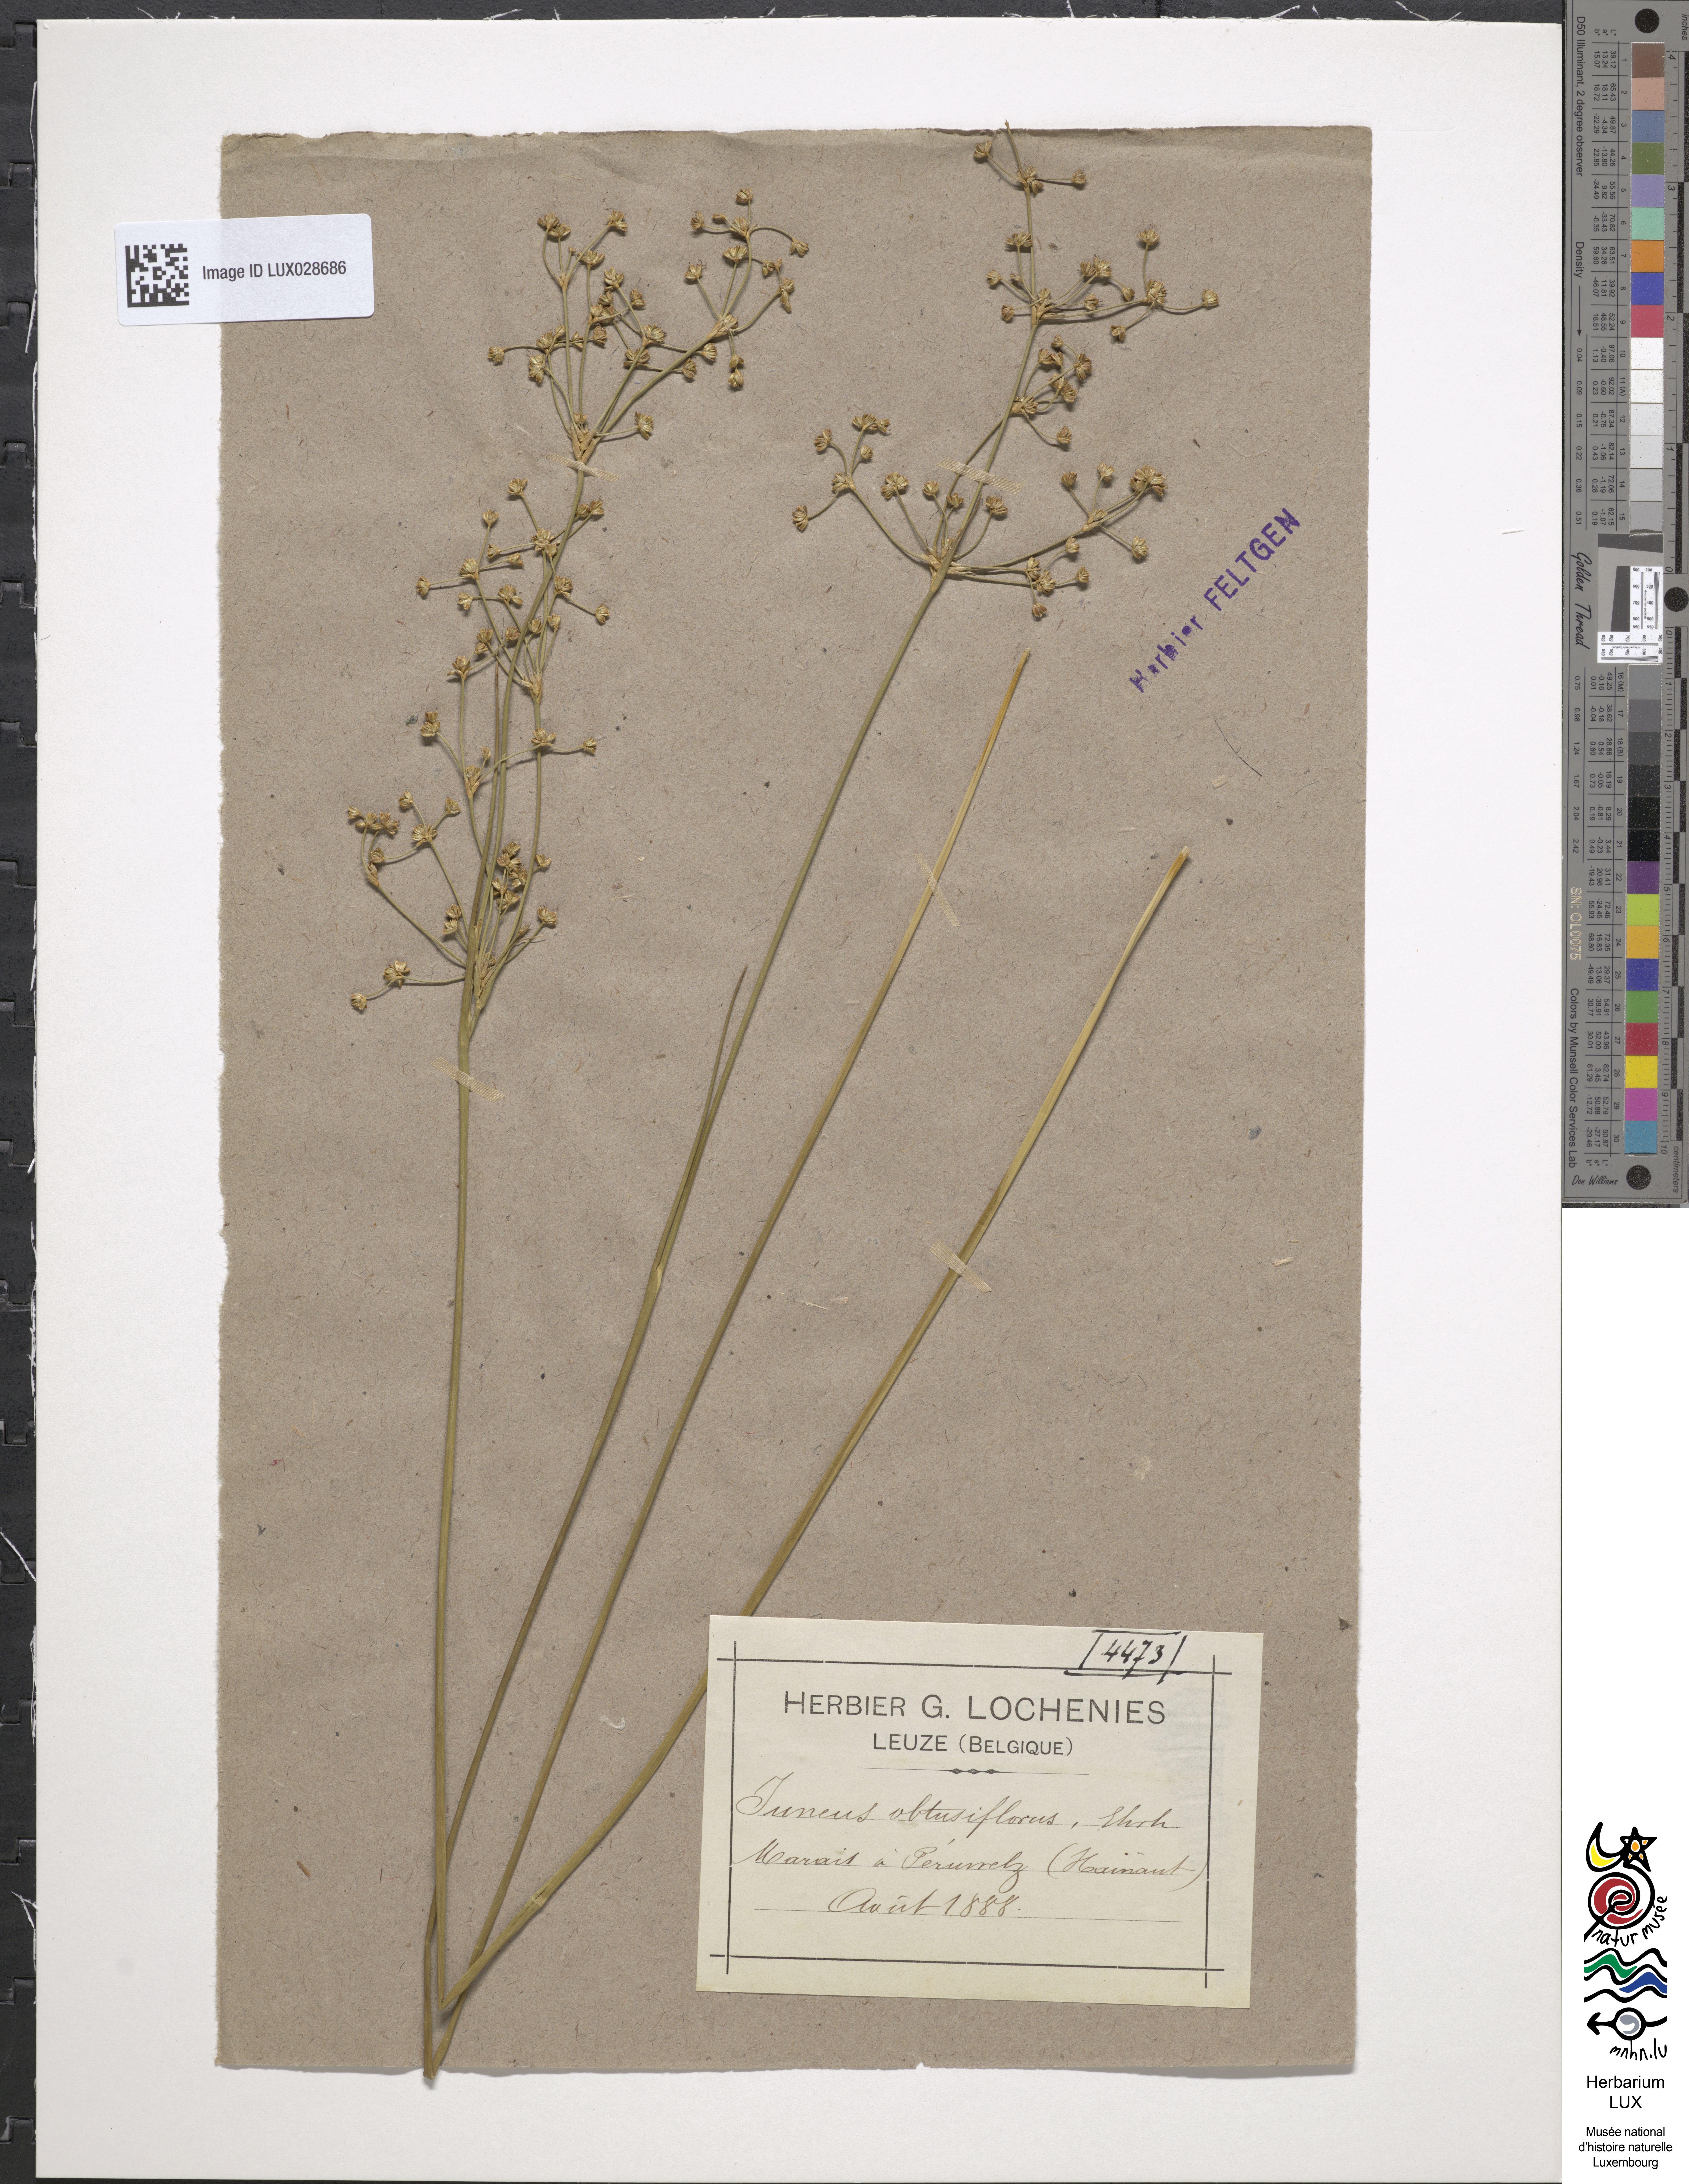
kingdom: Plantae
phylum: Tracheophyta
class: Liliopsida
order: Poales
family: Juncaceae
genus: Juncus
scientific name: Juncus subnodulosus
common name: Blunt-flowered rush
